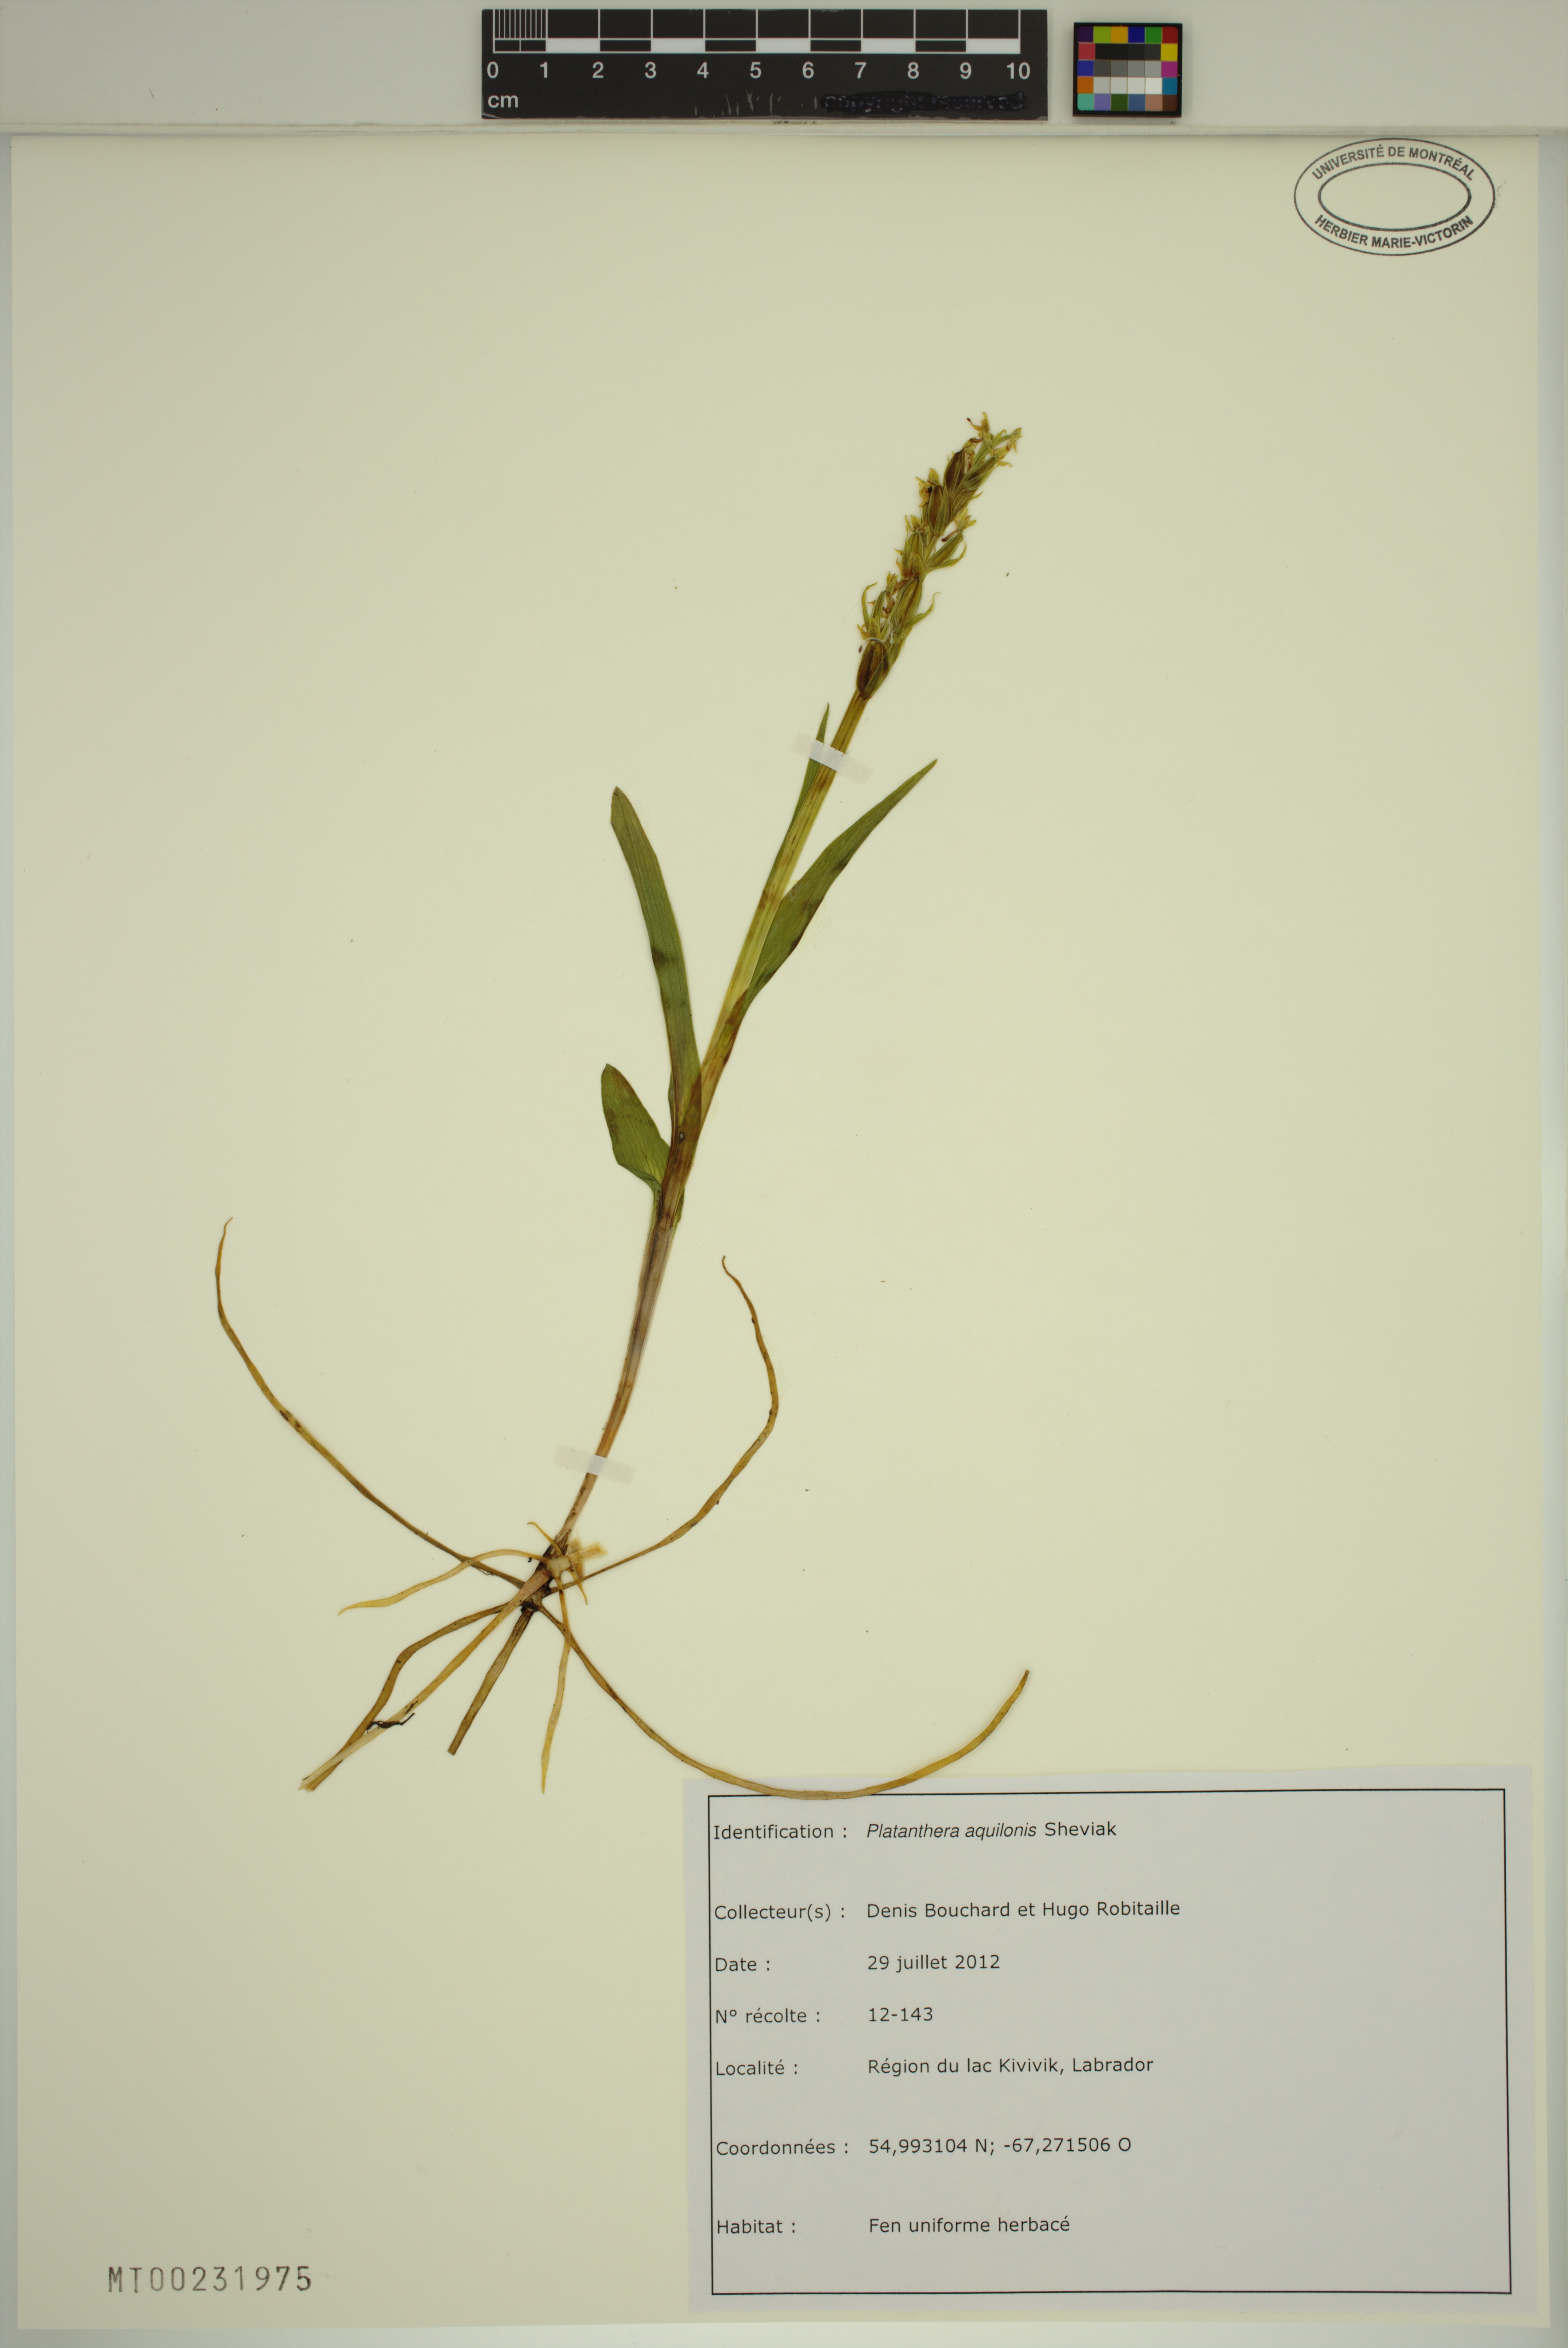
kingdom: Plantae
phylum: Tracheophyta
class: Liliopsida
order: Asparagales
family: Orchidaceae
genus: Platanthera
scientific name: Platanthera aquilonis
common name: Northern green orchid
